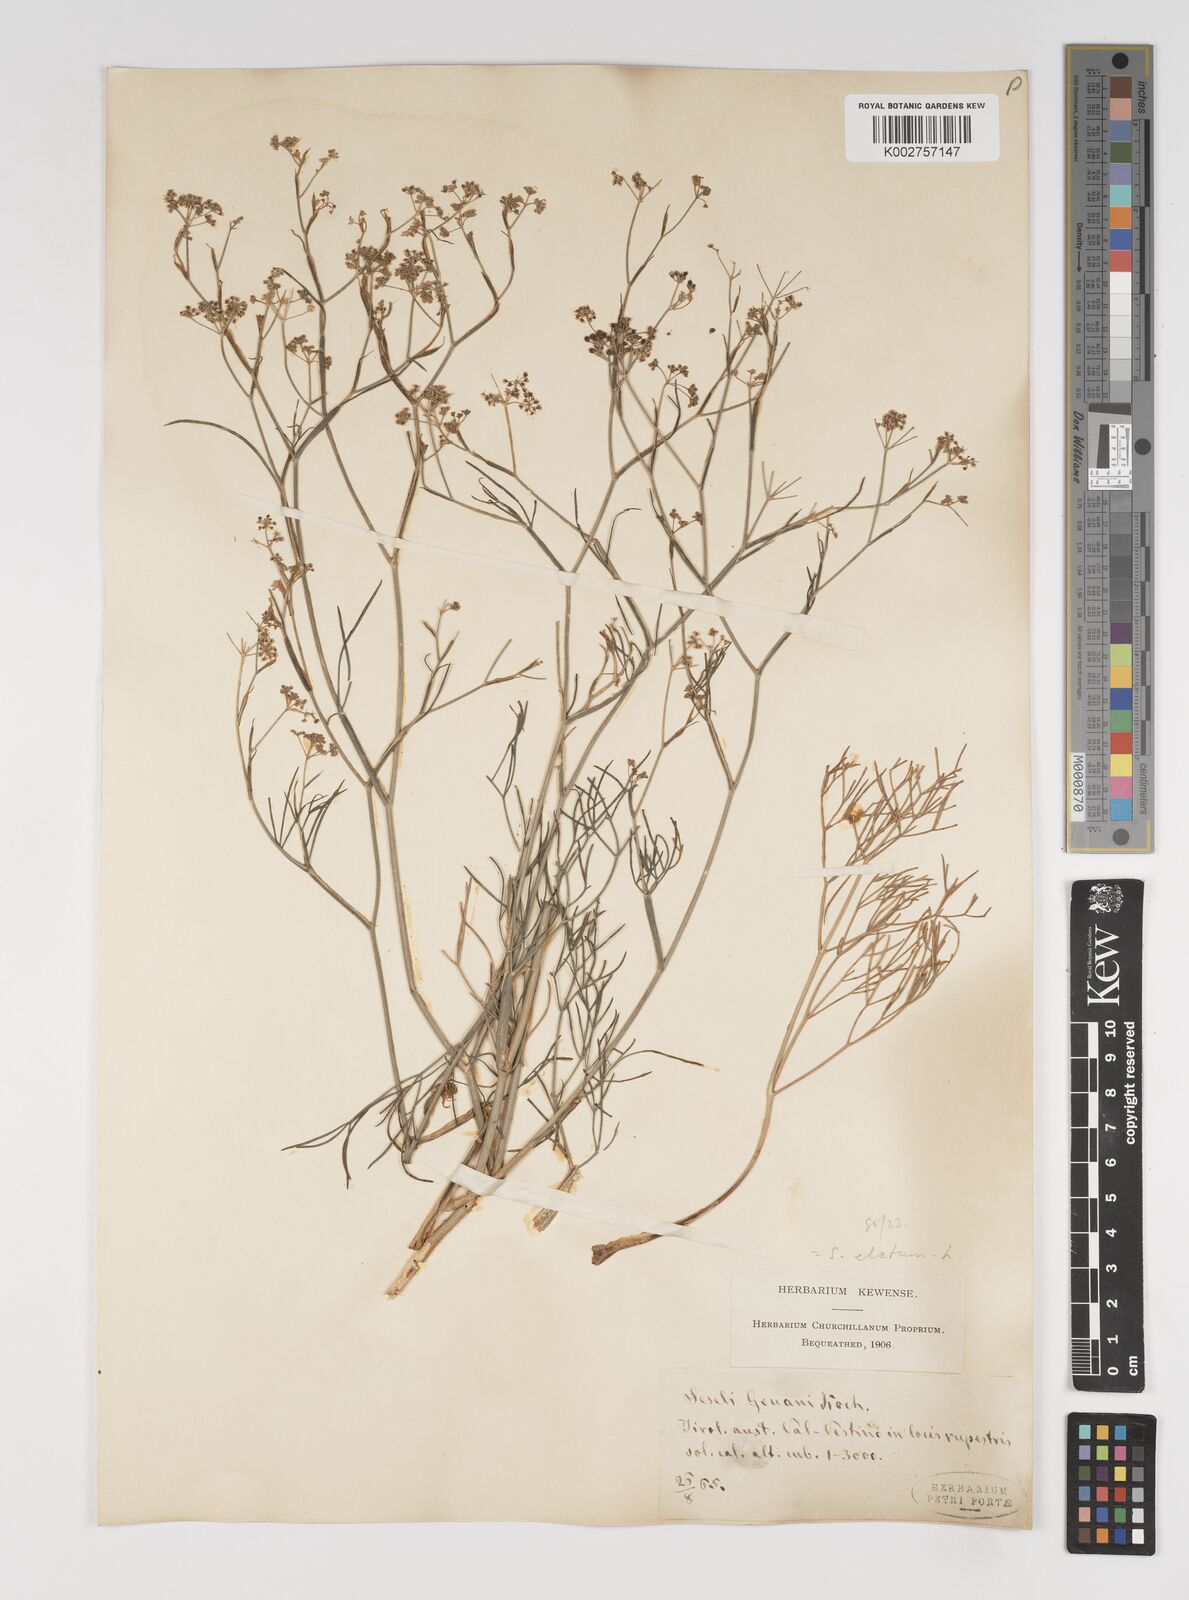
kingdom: Plantae
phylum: Tracheophyta
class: Magnoliopsida
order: Apiales
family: Apiaceae
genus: Seseli
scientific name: Seseli longifolium
